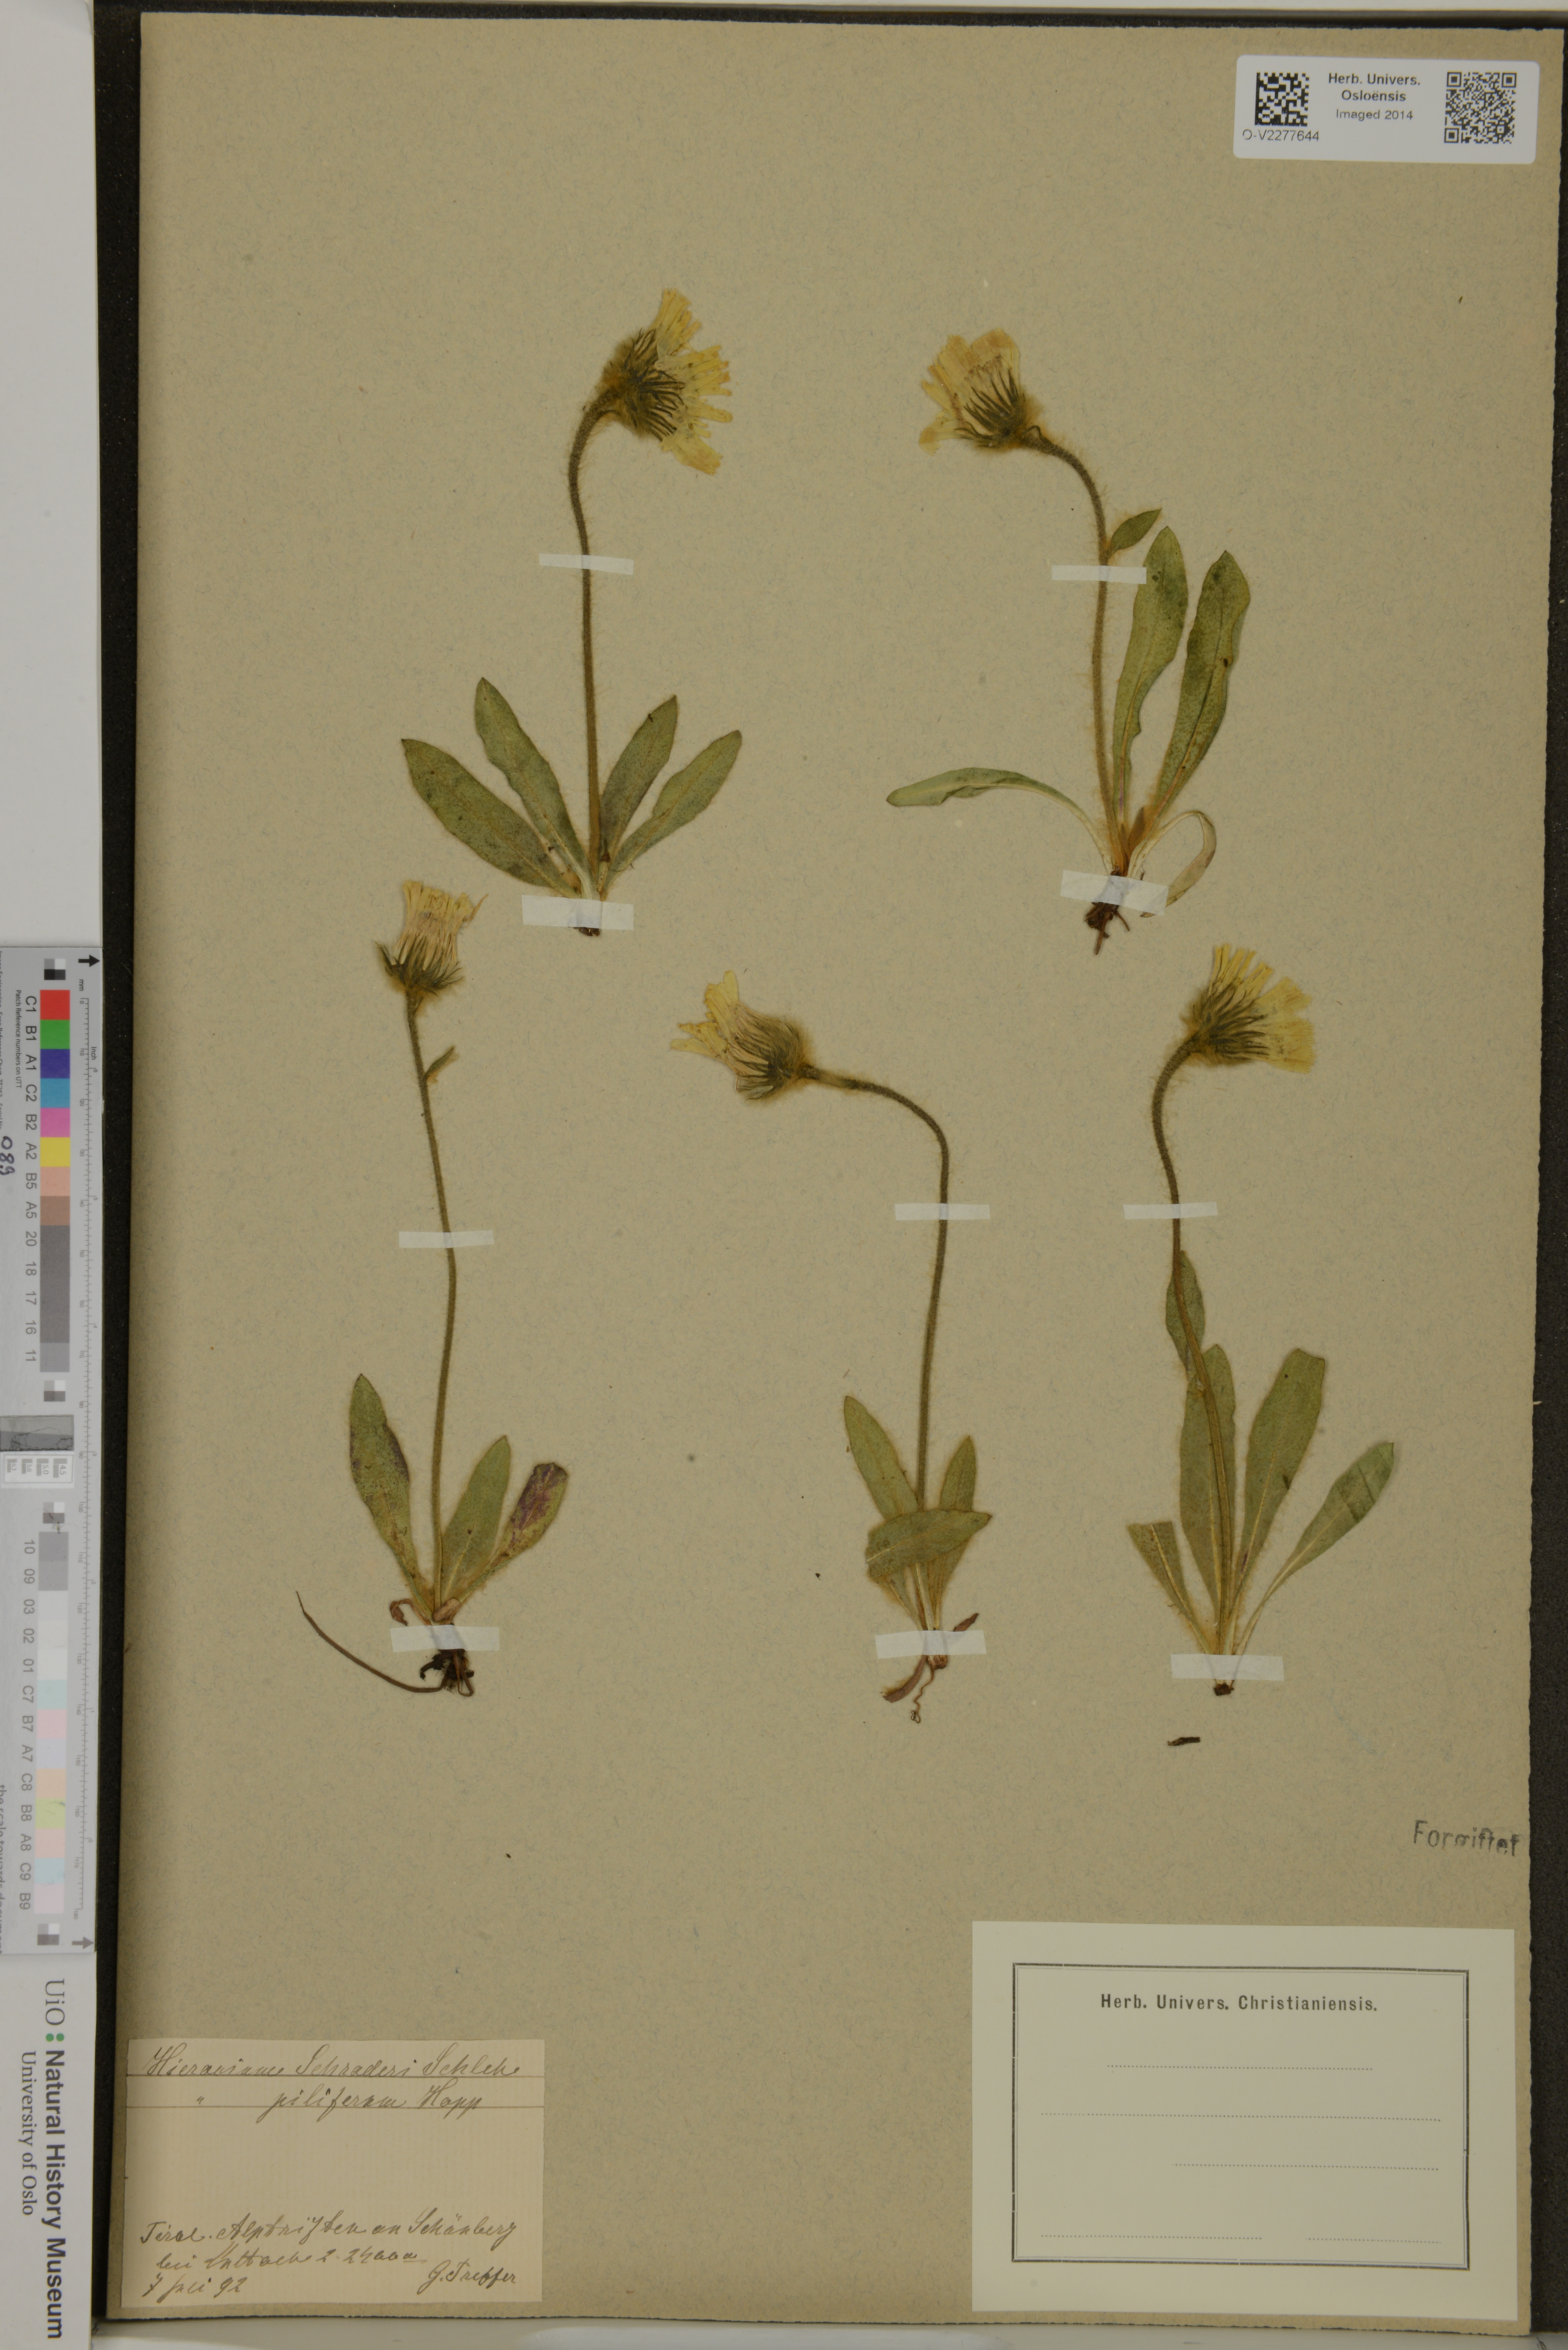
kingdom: Plantae
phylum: Tracheophyta
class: Magnoliopsida
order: Asterales
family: Asteraceae
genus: Hieracium
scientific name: Hieracium schraderi
